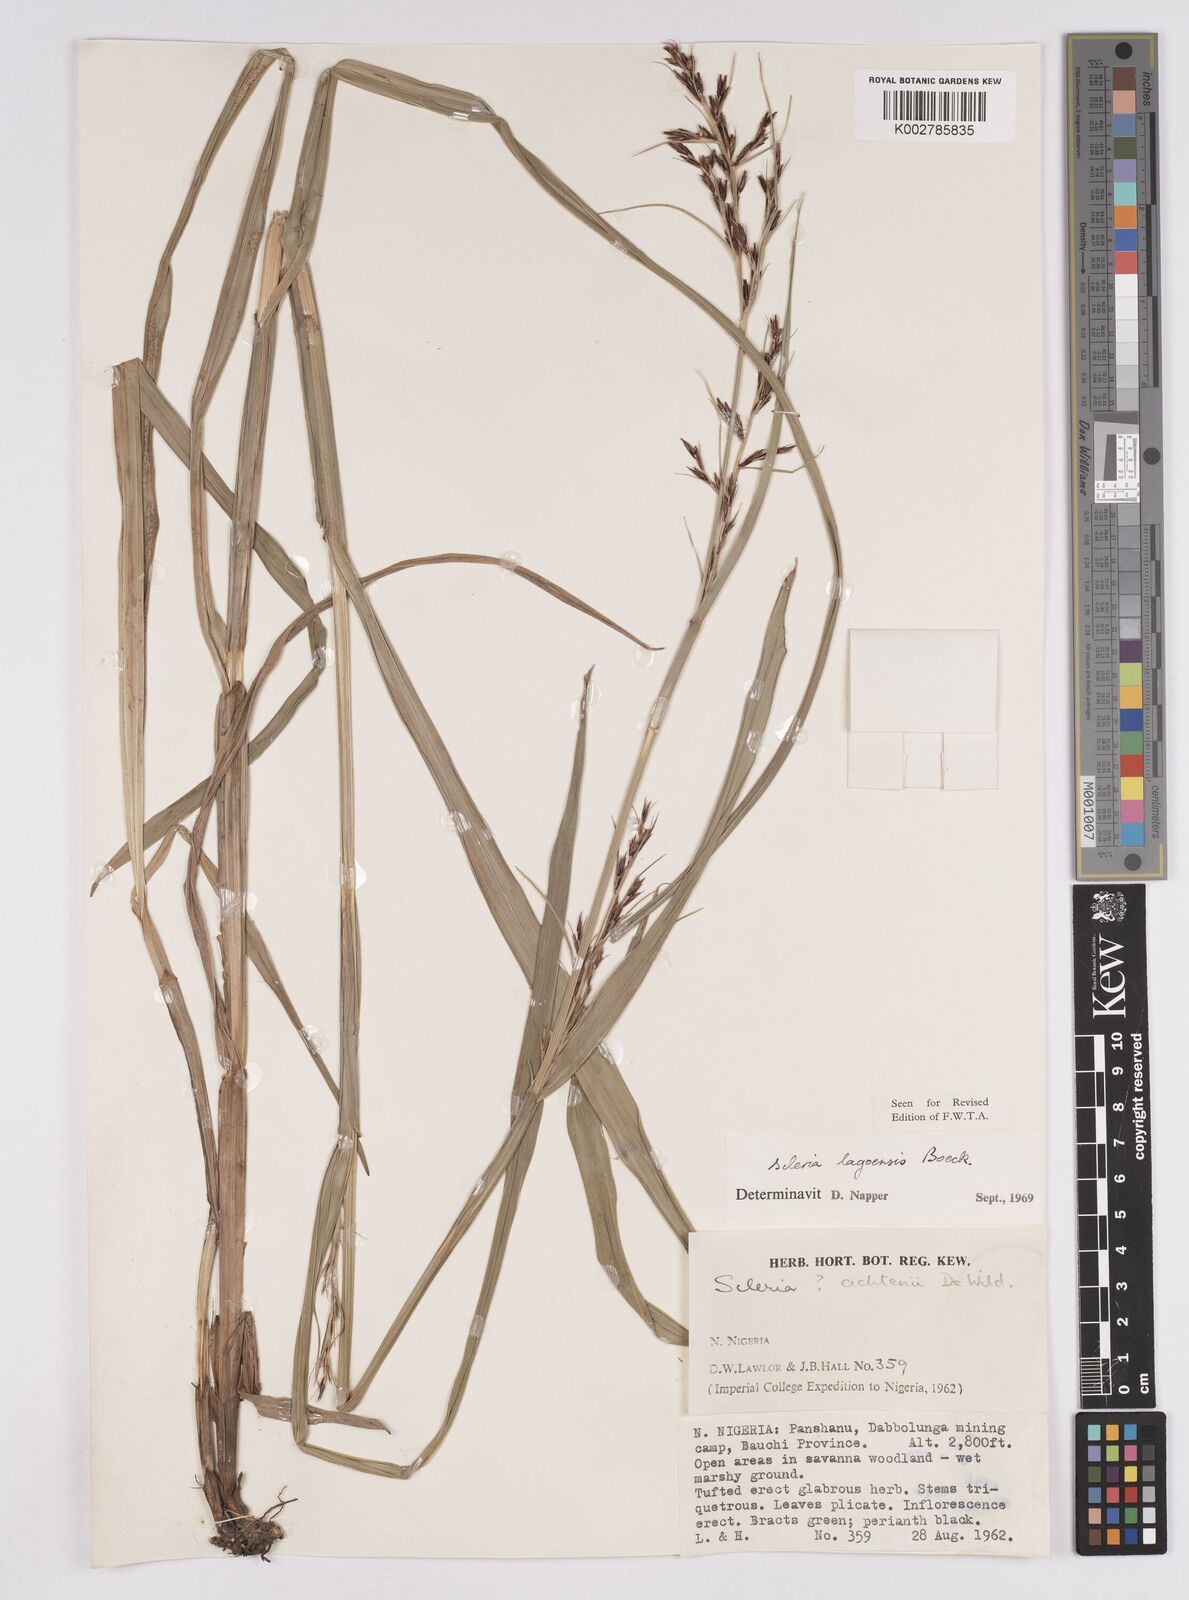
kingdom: Plantae
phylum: Tracheophyta
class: Liliopsida
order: Poales
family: Cyperaceae
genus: Scleria
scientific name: Scleria lagoensis
